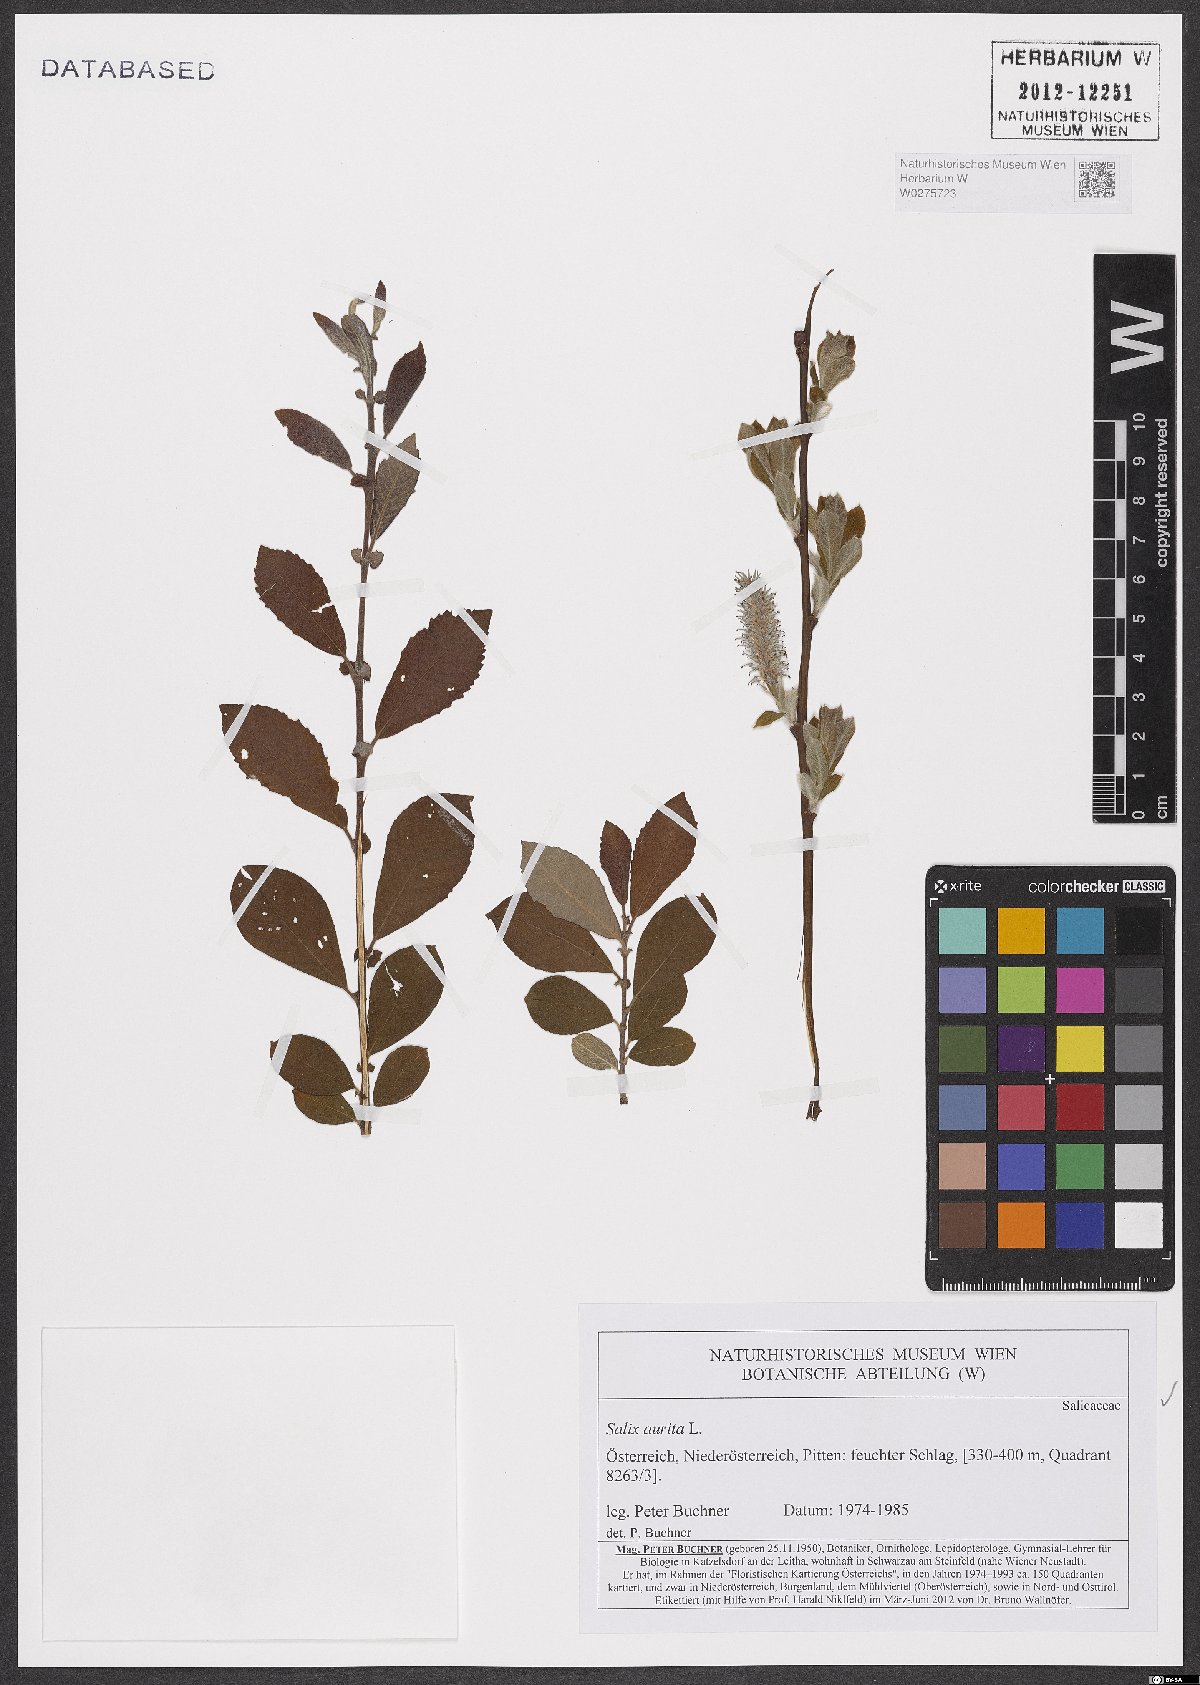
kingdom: Plantae
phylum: Tracheophyta
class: Magnoliopsida
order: Malpighiales
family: Salicaceae
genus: Salix
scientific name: Salix aurita
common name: Eared willow
